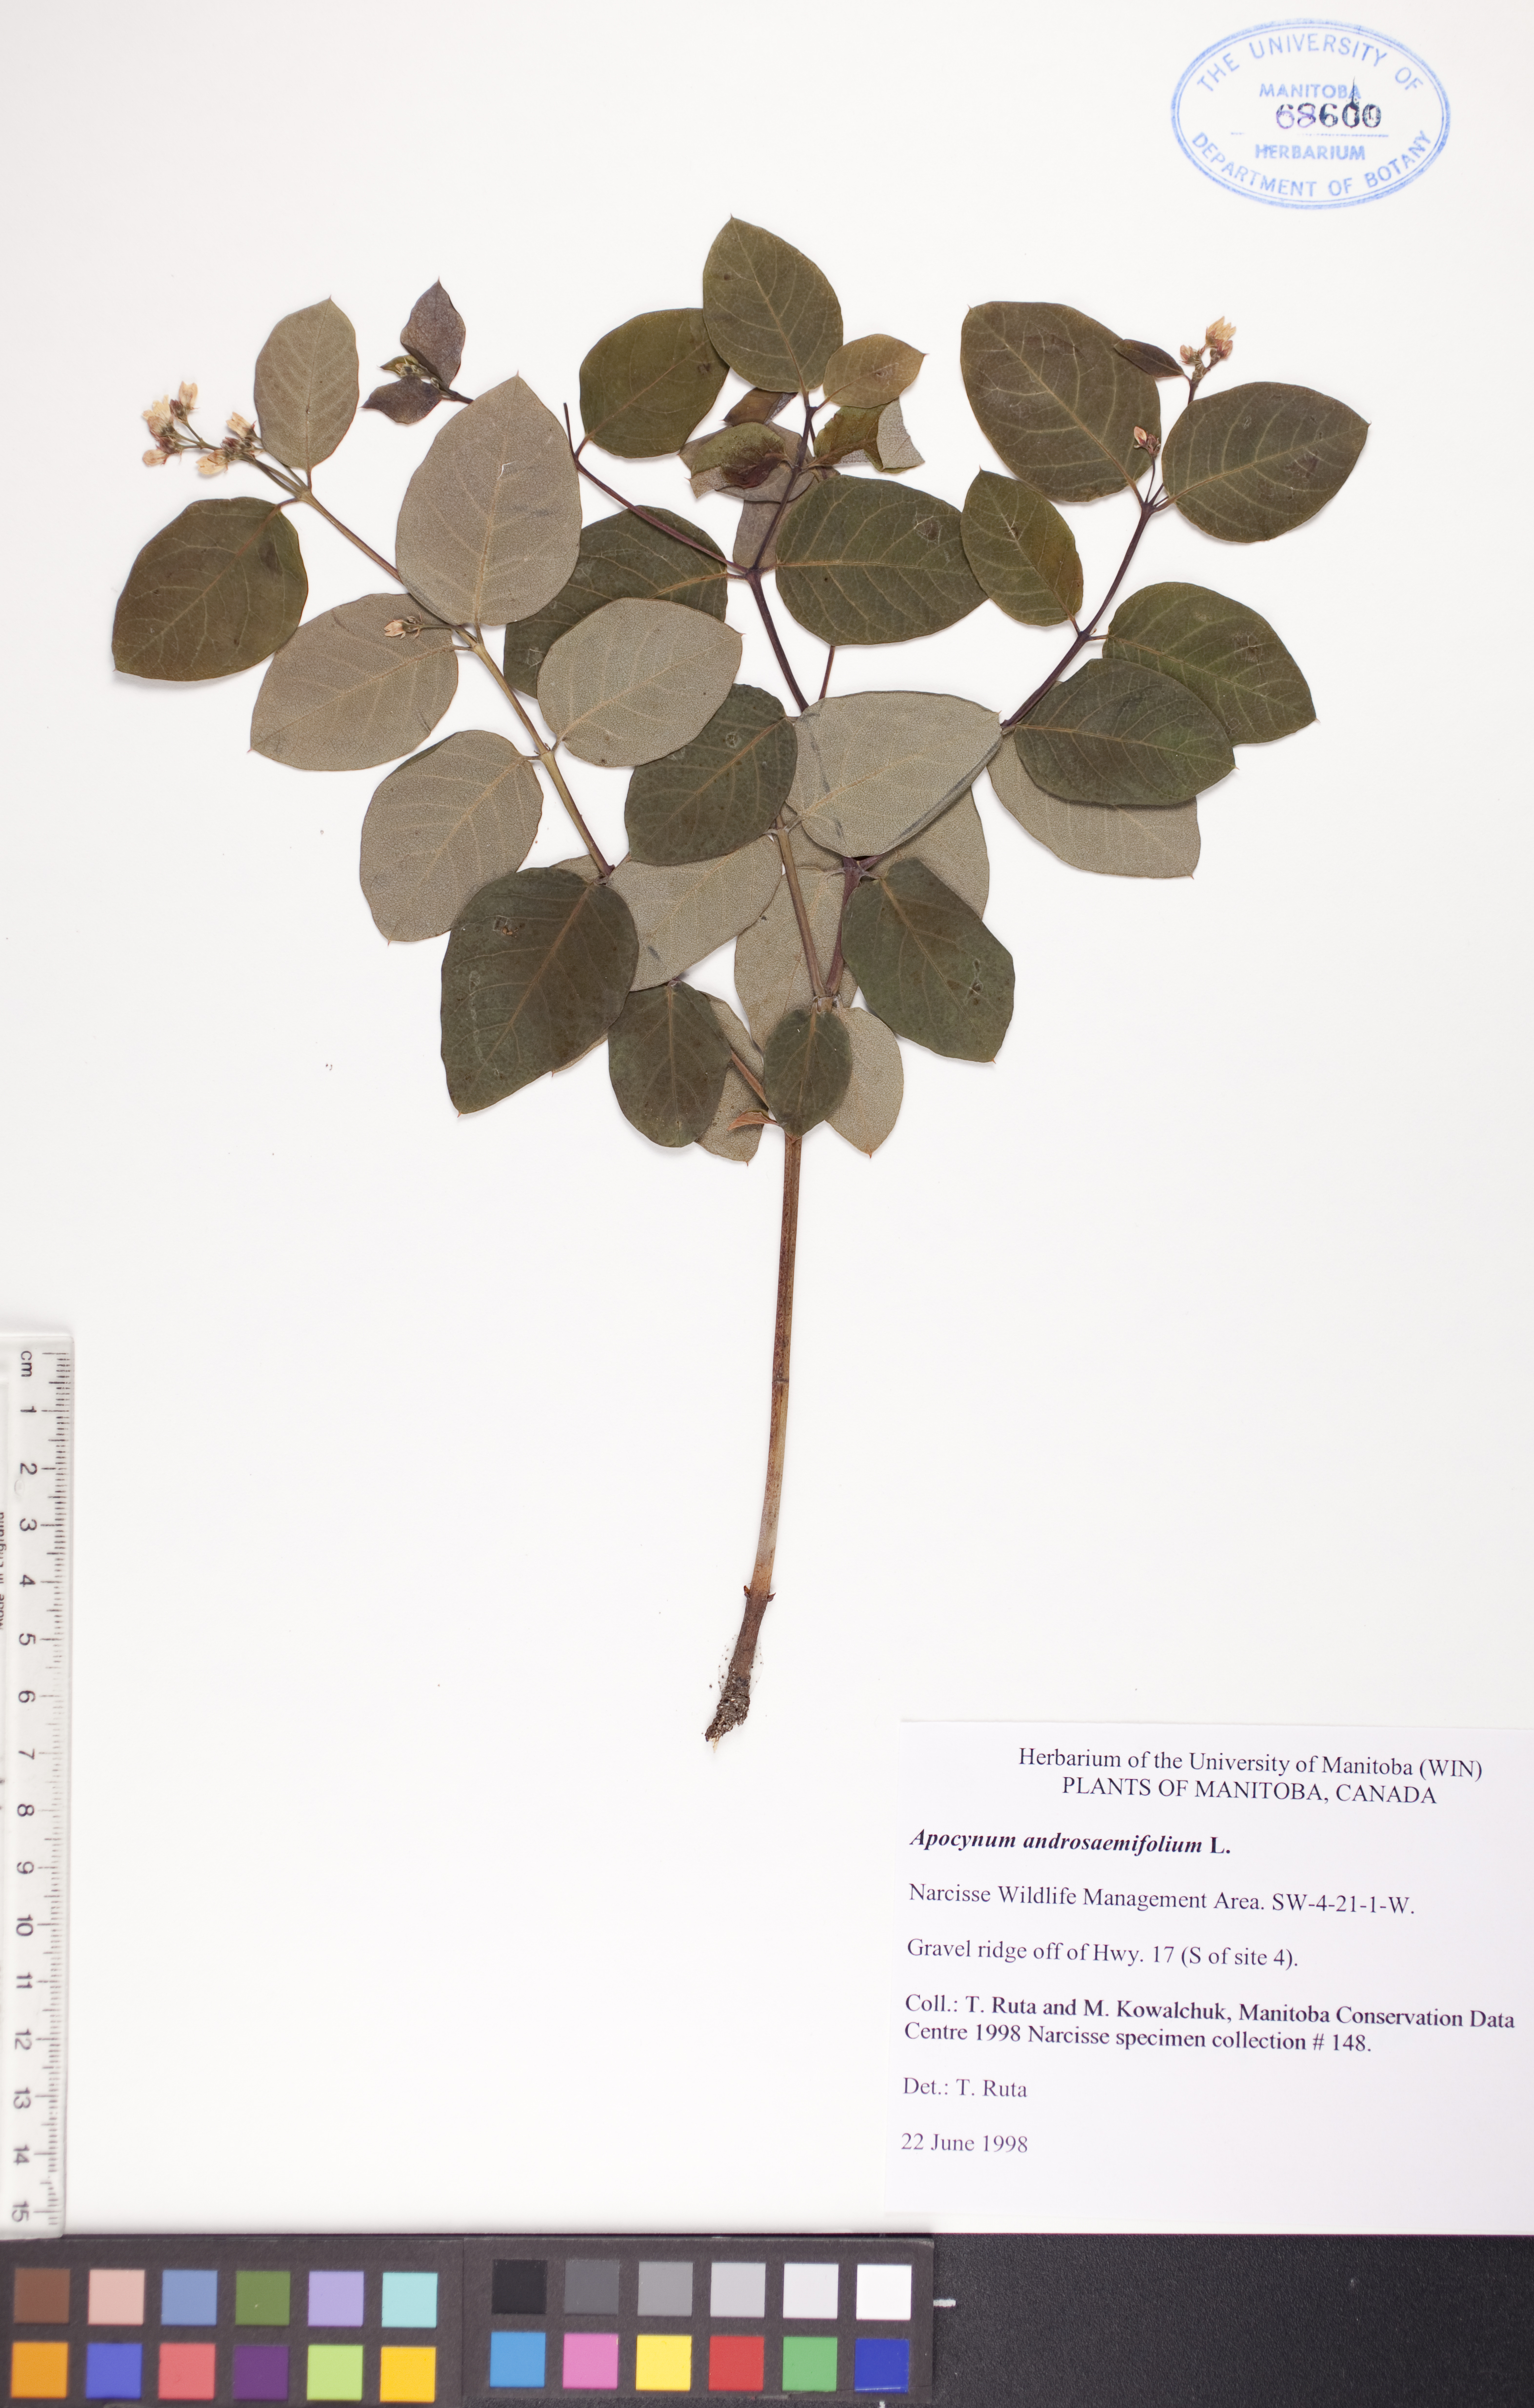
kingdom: Plantae
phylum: Tracheophyta
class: Magnoliopsida
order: Gentianales
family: Apocynaceae
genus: Apocynum
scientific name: Apocynum androsaemifolium
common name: Spreading dogbane
